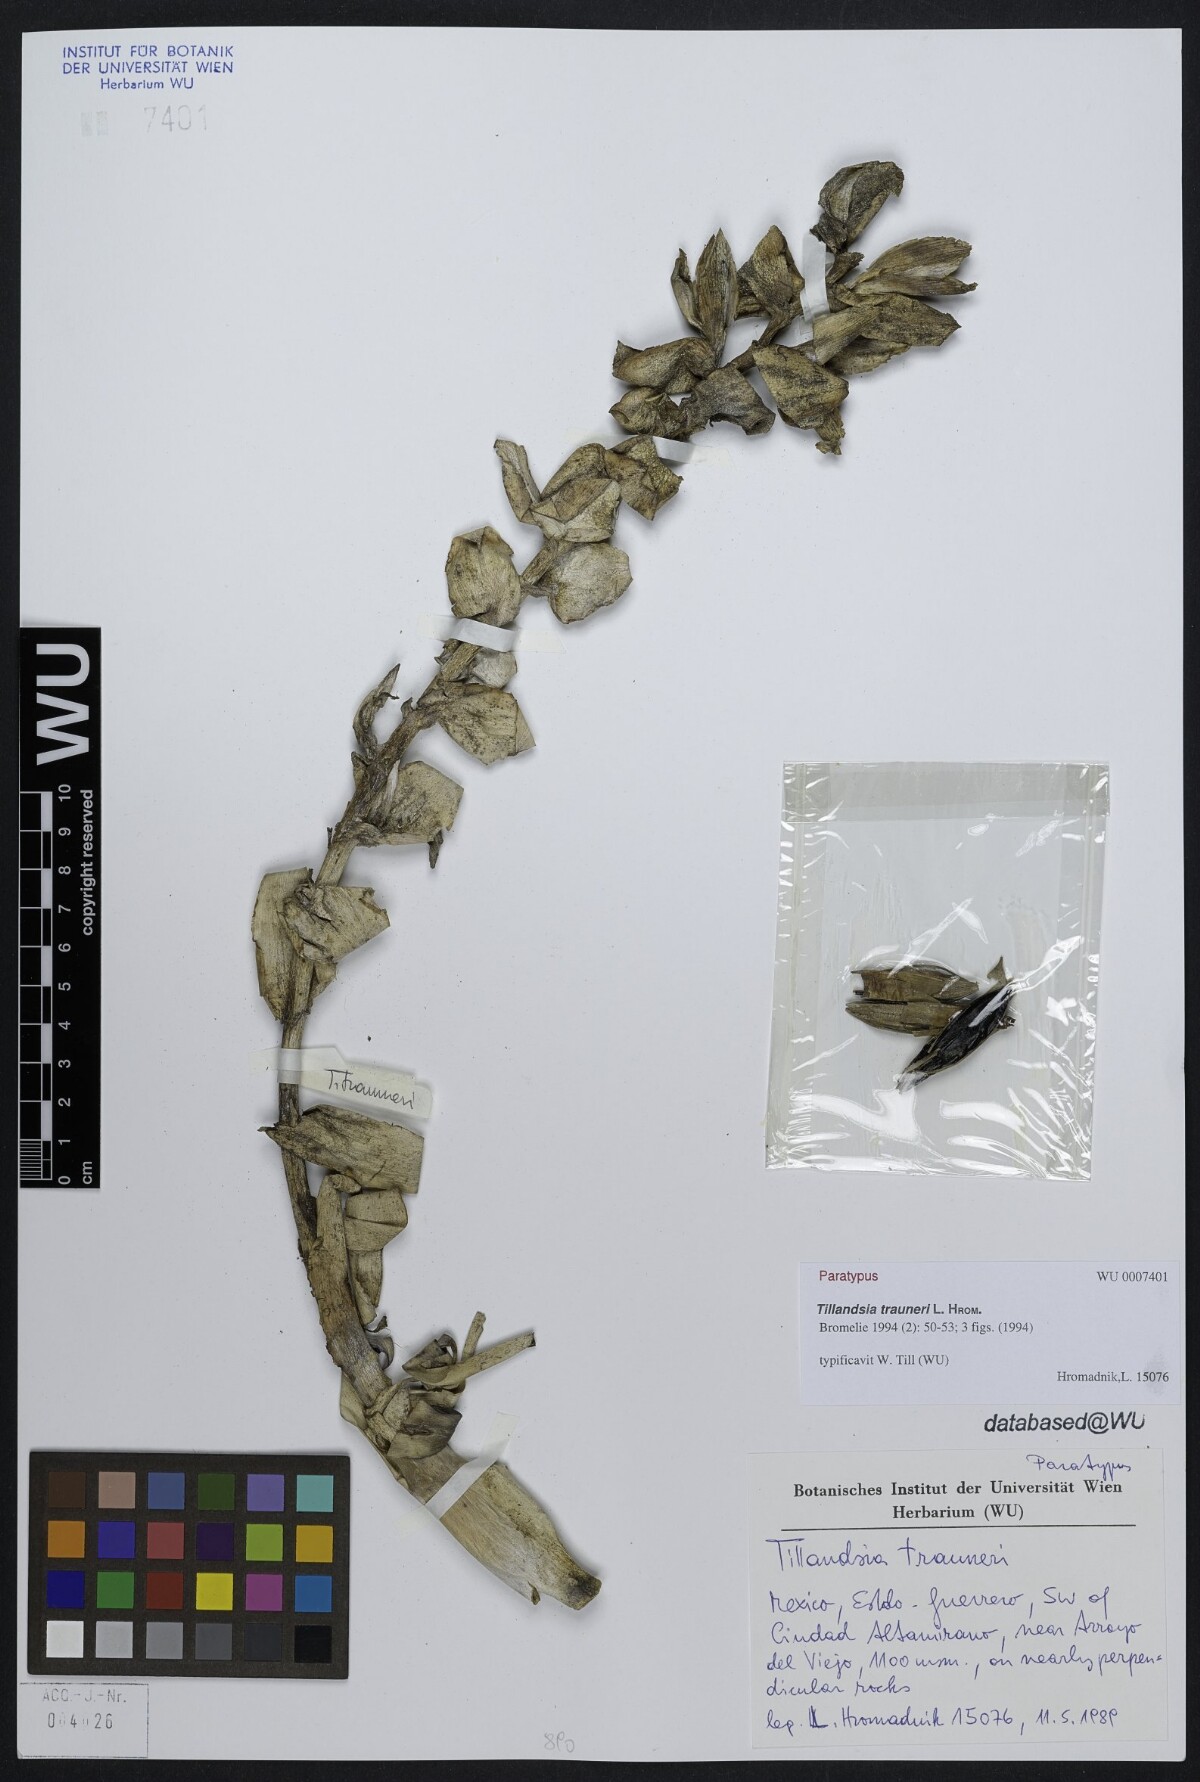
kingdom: Plantae
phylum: Tracheophyta
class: Liliopsida
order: Poales
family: Bromeliaceae
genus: Tillandsia
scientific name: Tillandsia trauneri
